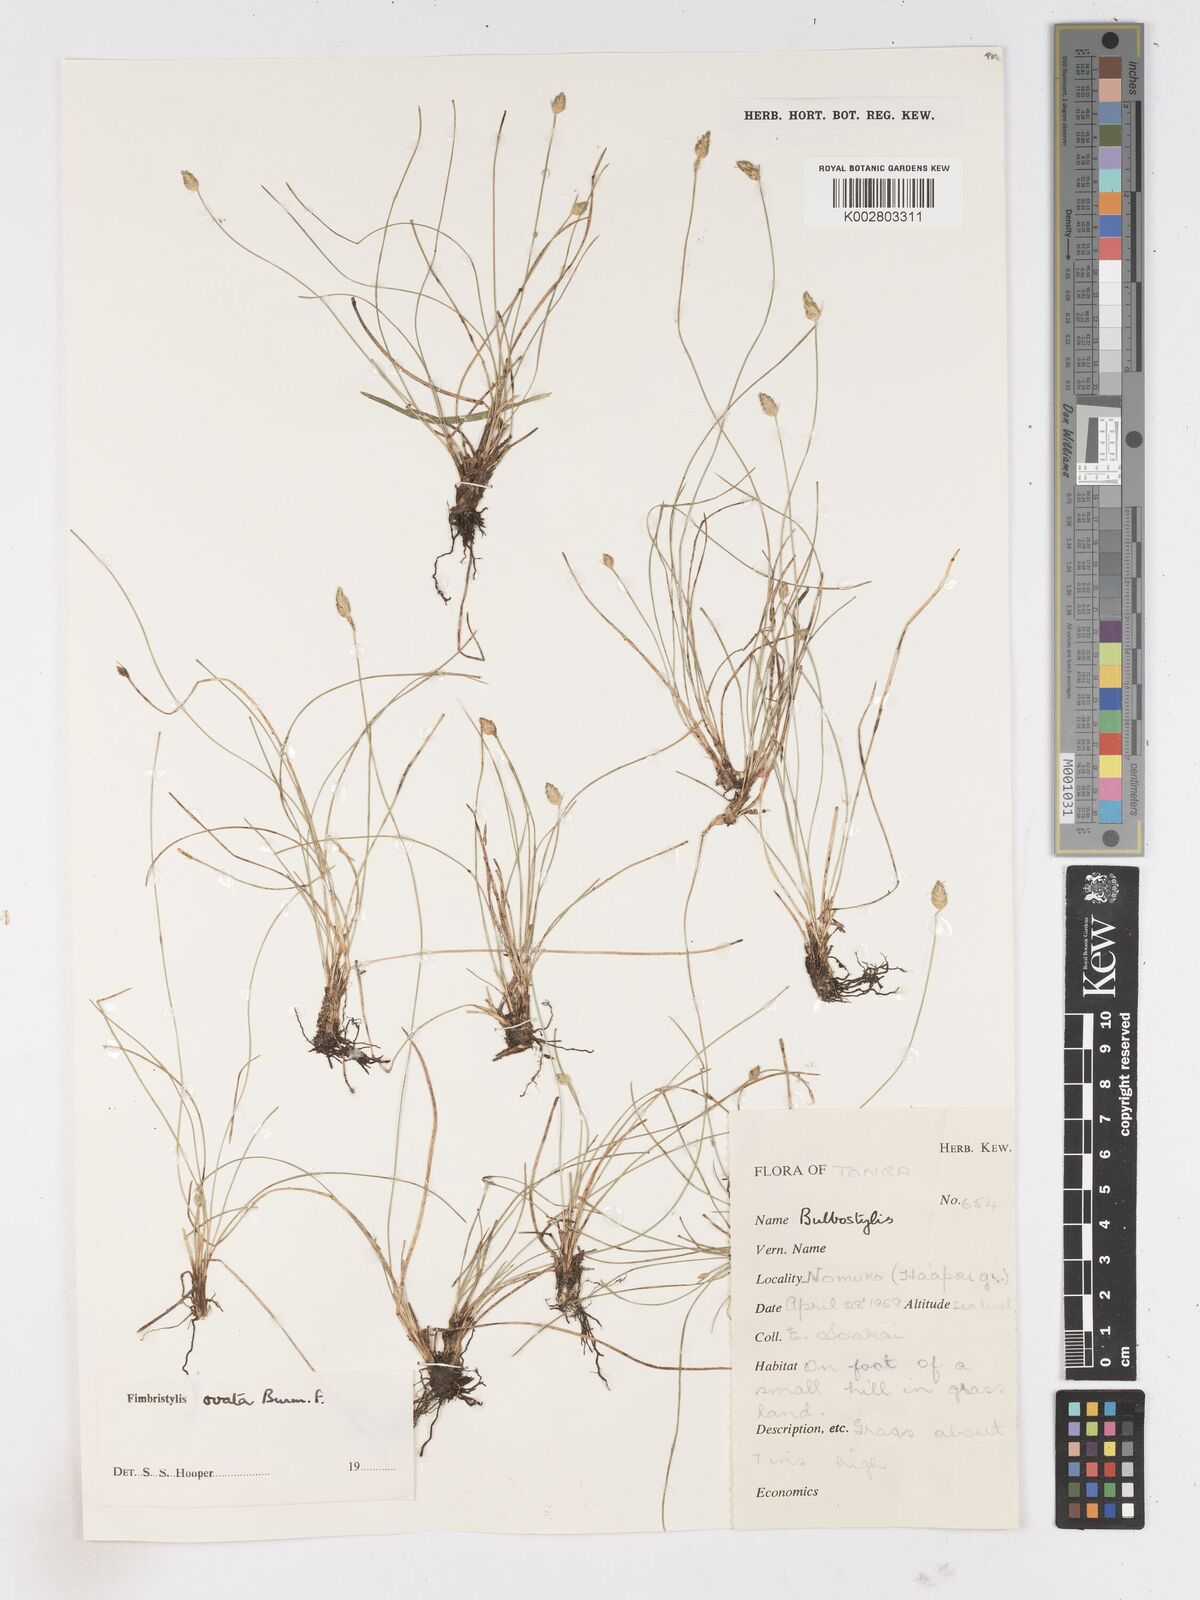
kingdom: Plantae
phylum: Tracheophyta
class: Liliopsida
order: Poales
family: Cyperaceae
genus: Abildgaardia
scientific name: Abildgaardia ovata
